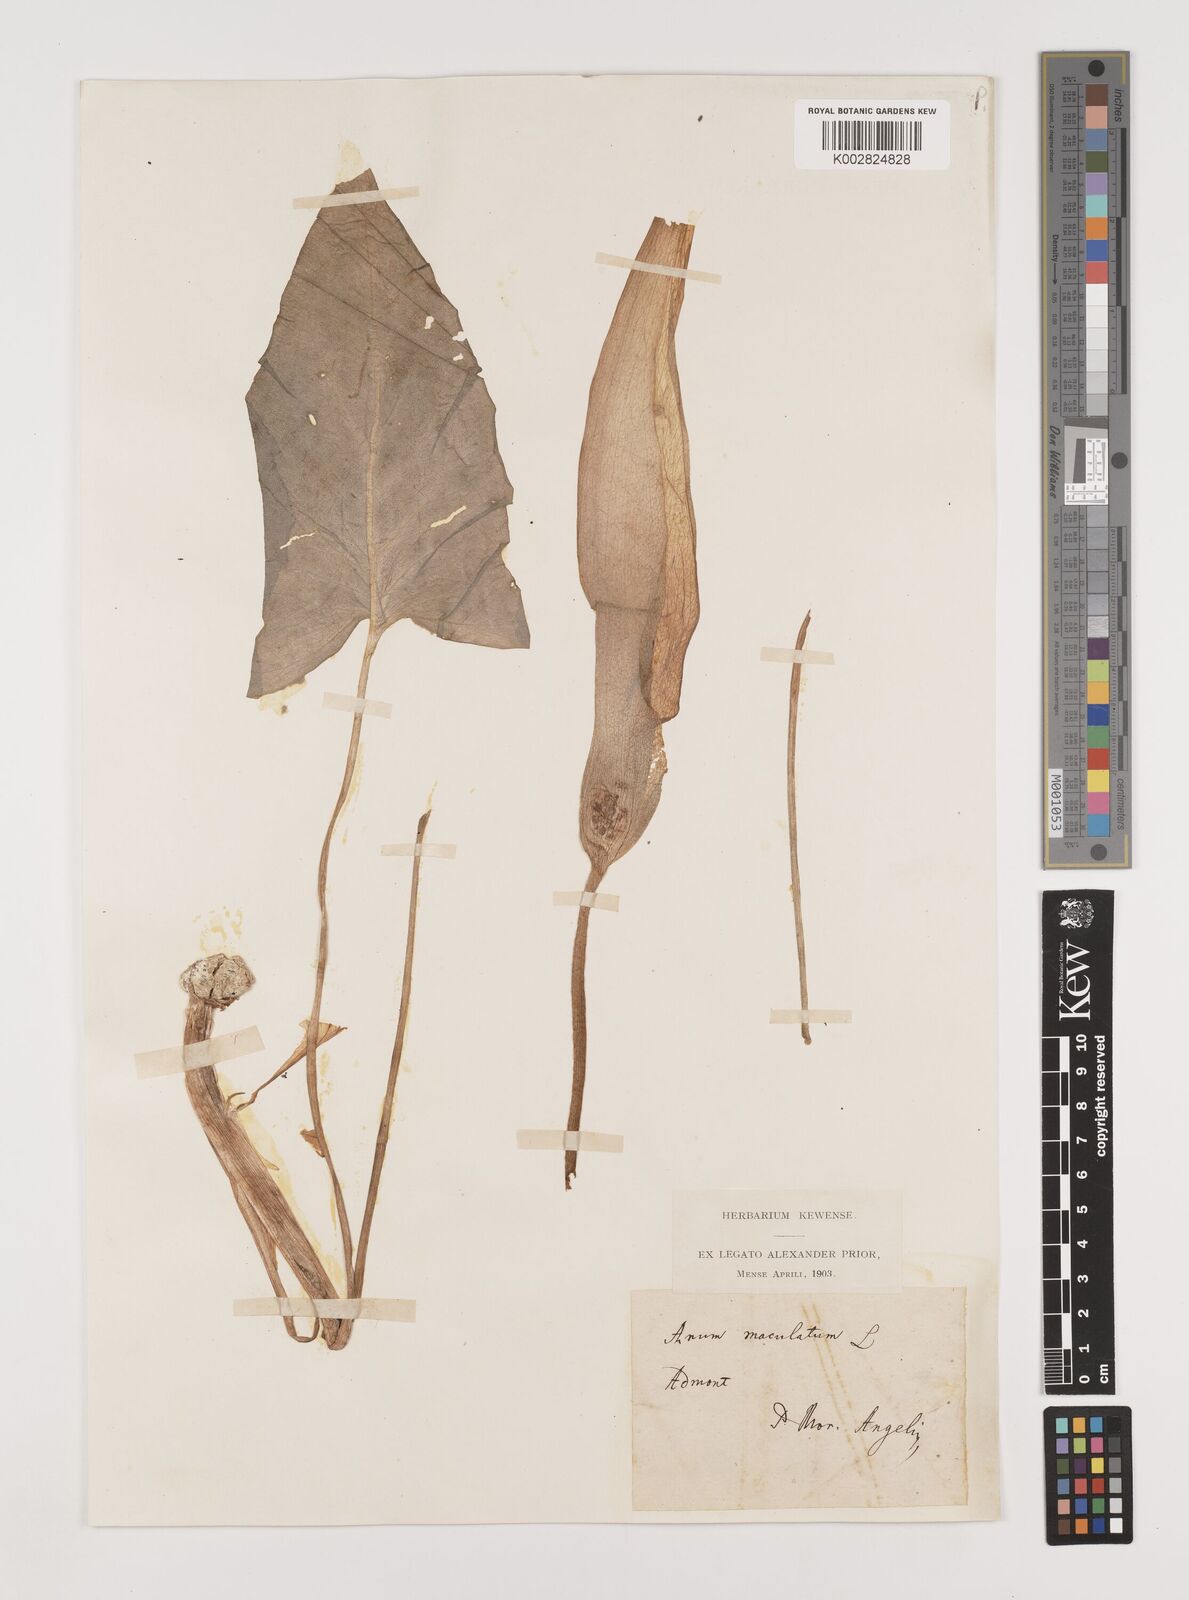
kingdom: Plantae
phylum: Tracheophyta
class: Liliopsida
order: Alismatales
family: Araceae
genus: Arum
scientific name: Arum maculatum
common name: Lords-and-ladies
